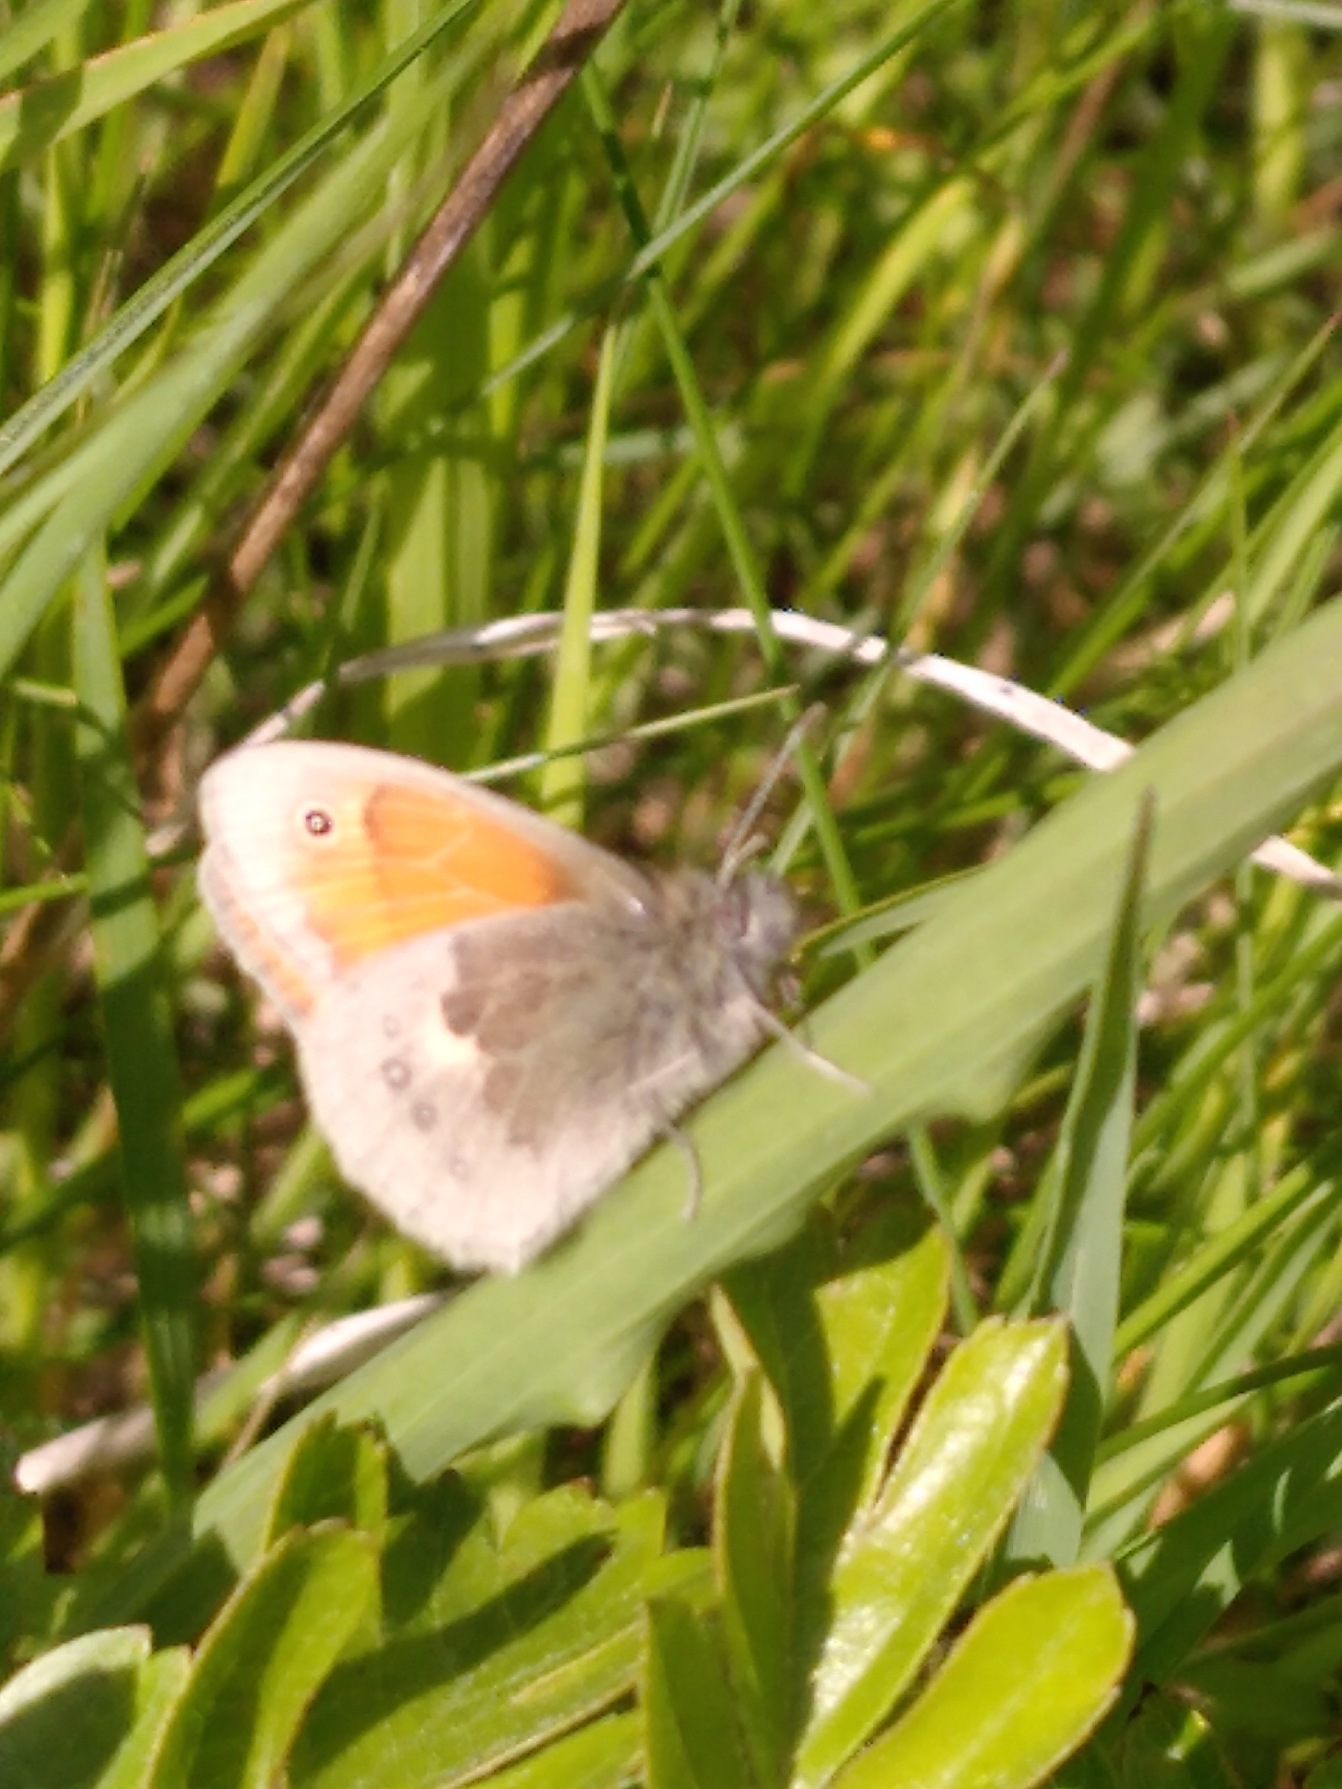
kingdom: Animalia
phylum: Arthropoda
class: Insecta
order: Lepidoptera
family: Nymphalidae
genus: Coenonympha
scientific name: Coenonympha pamphilus
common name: Okkergul randøje
